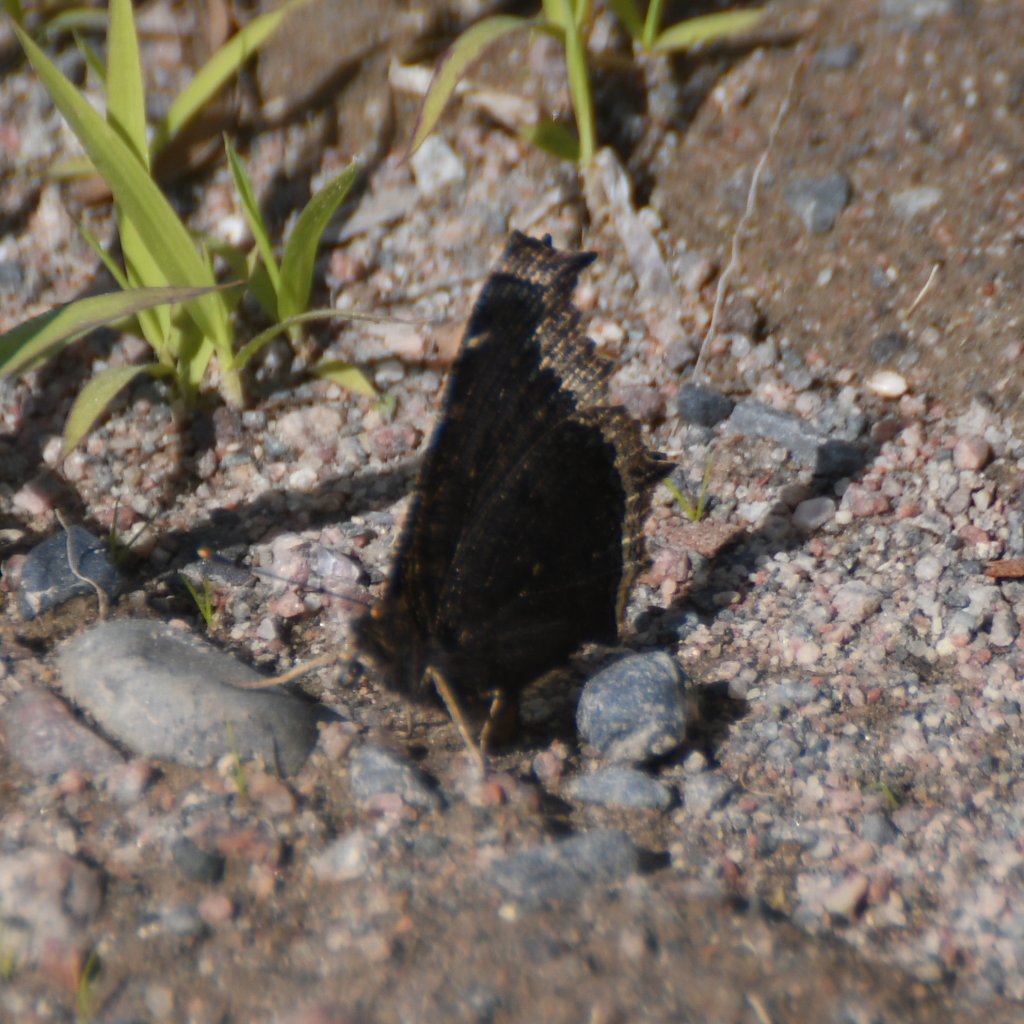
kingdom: Animalia
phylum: Arthropoda
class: Insecta
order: Lepidoptera
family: Nymphalidae
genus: Nymphalis
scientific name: Nymphalis antiopa
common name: Mourning Cloak
